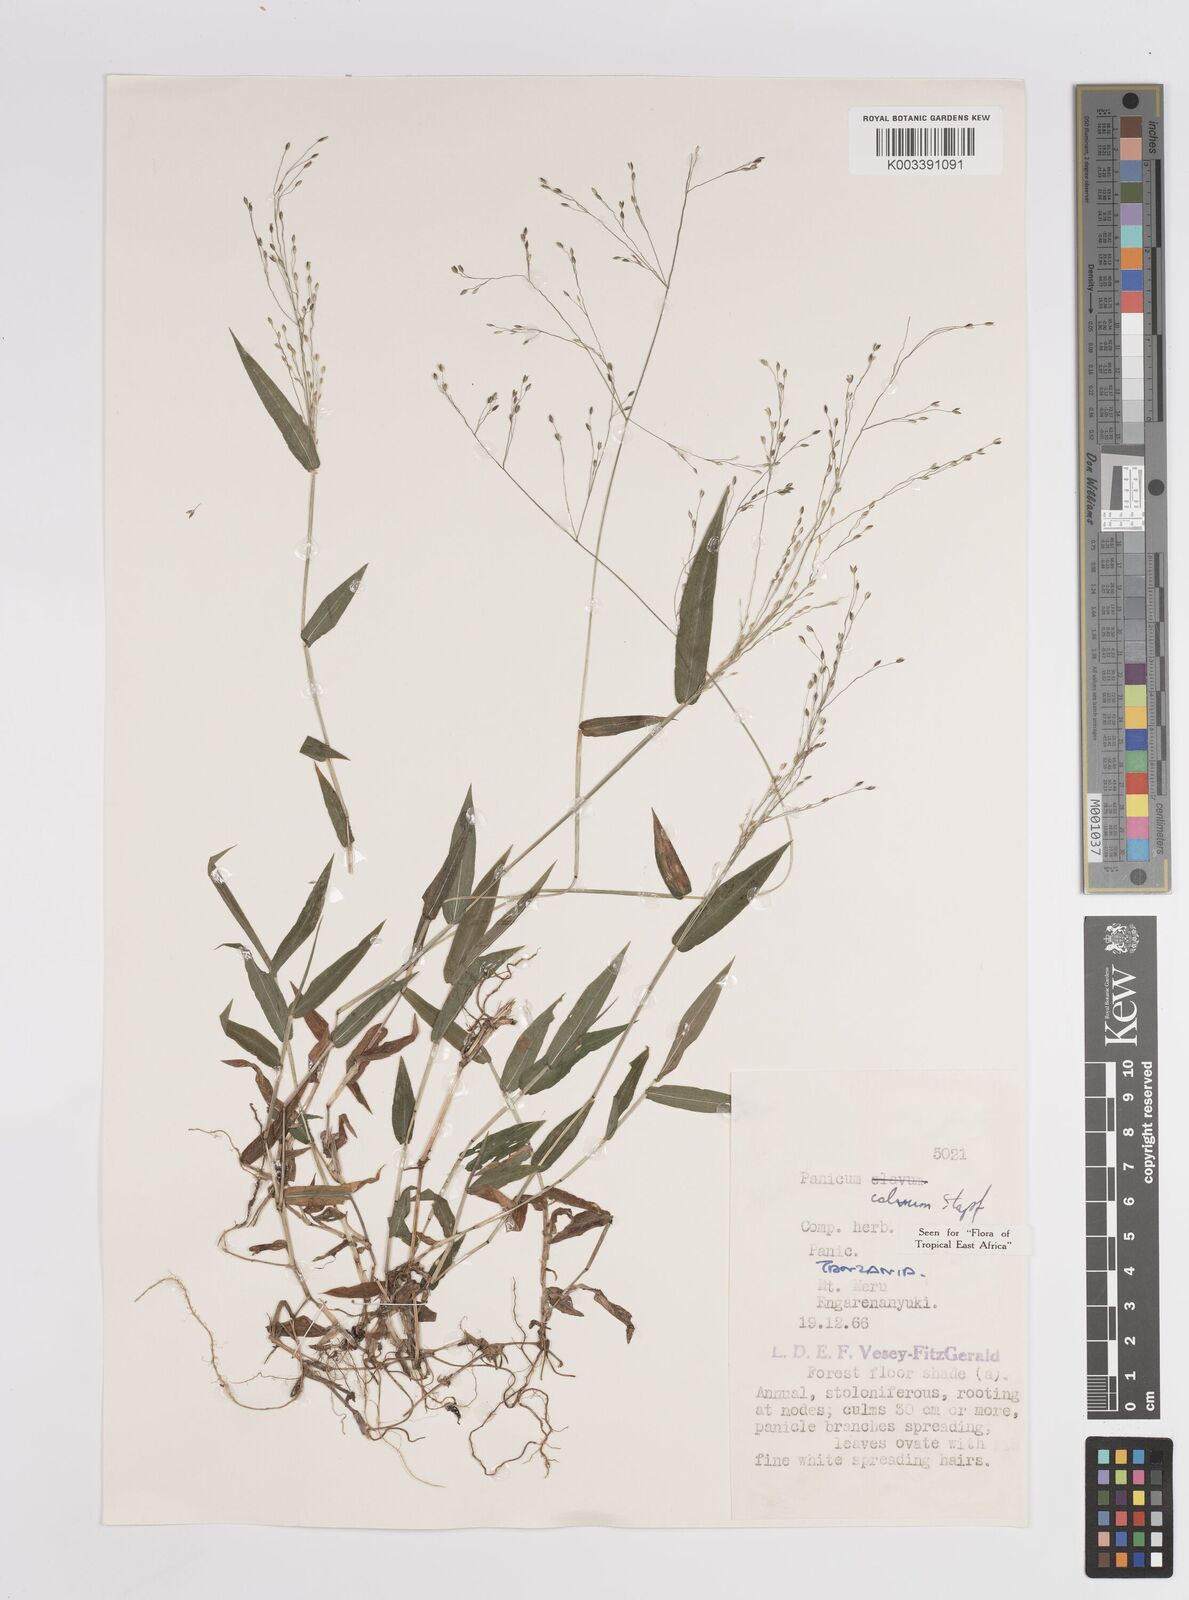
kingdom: Plantae
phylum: Tracheophyta
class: Liliopsida
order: Poales
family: Poaceae
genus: Panicum
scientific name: Panicum calvum
